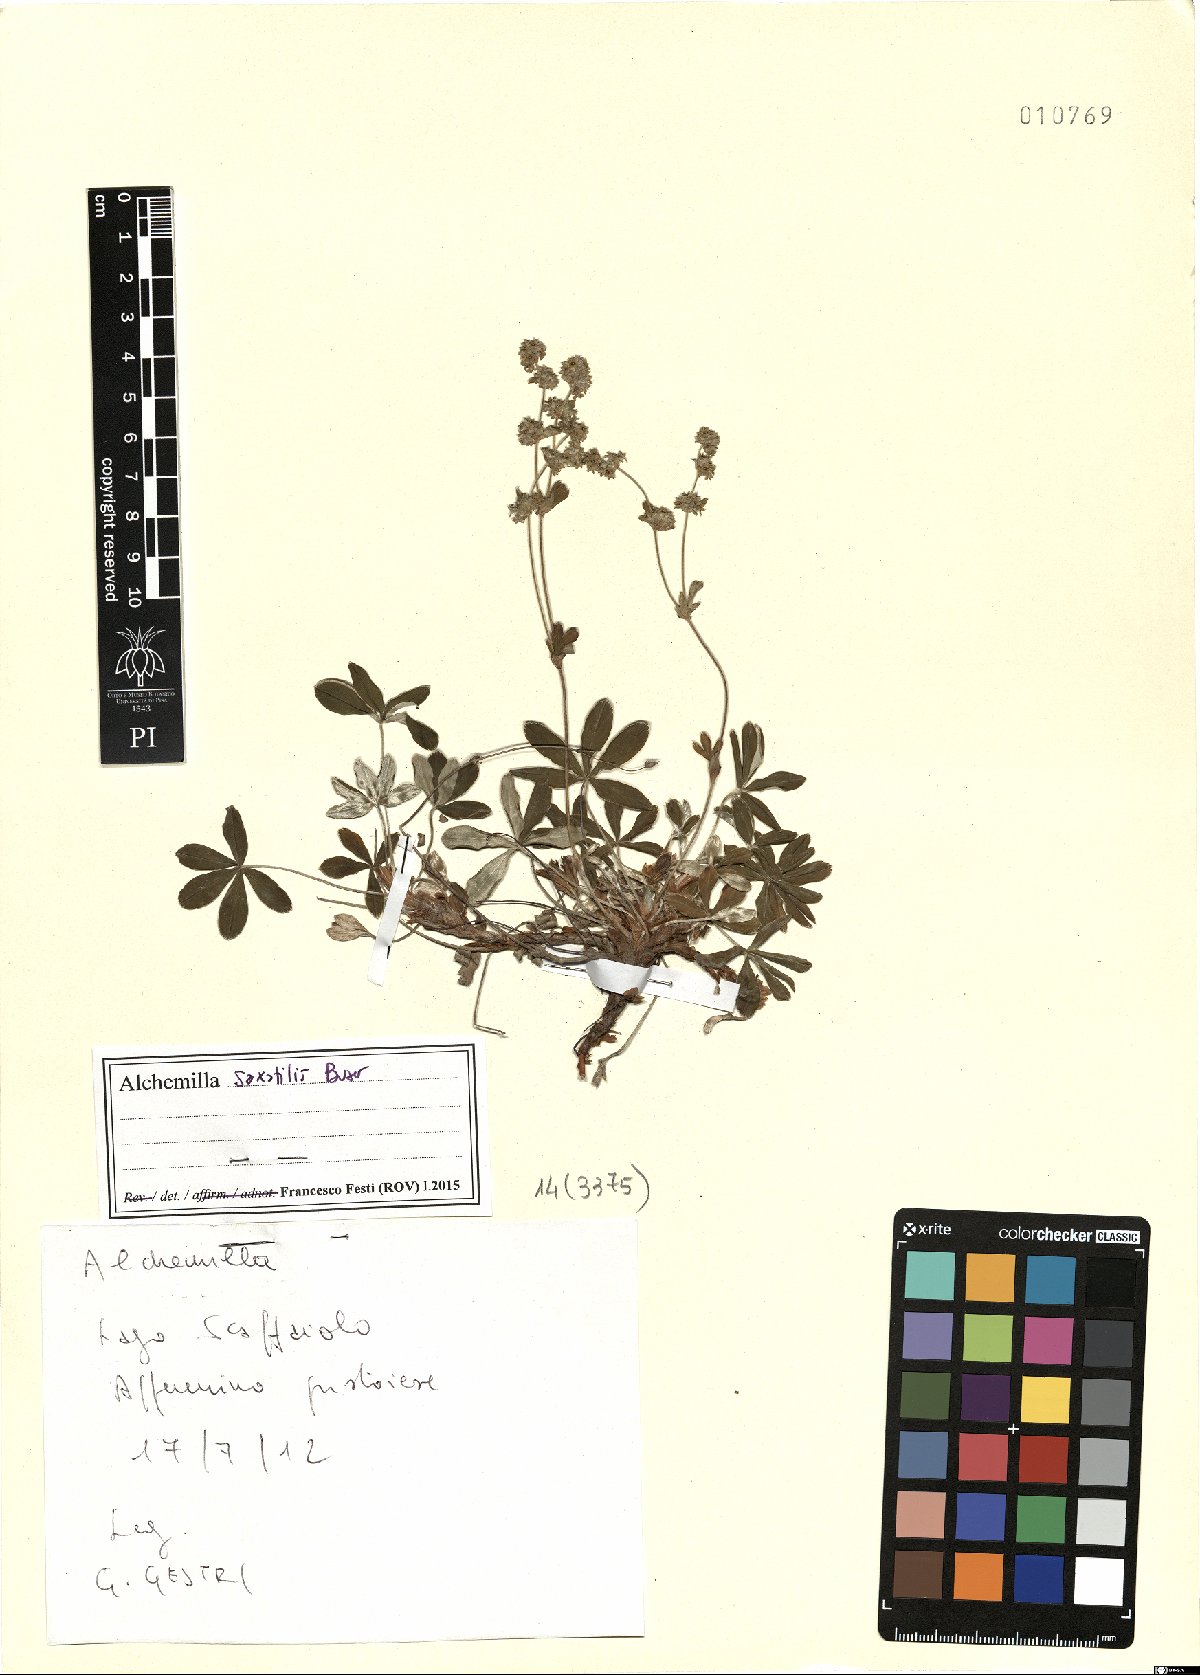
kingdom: Plantae
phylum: Tracheophyta
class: Magnoliopsida
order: Rosales
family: Rosaceae
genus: Alchemilla
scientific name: Alchemilla saxatilis
